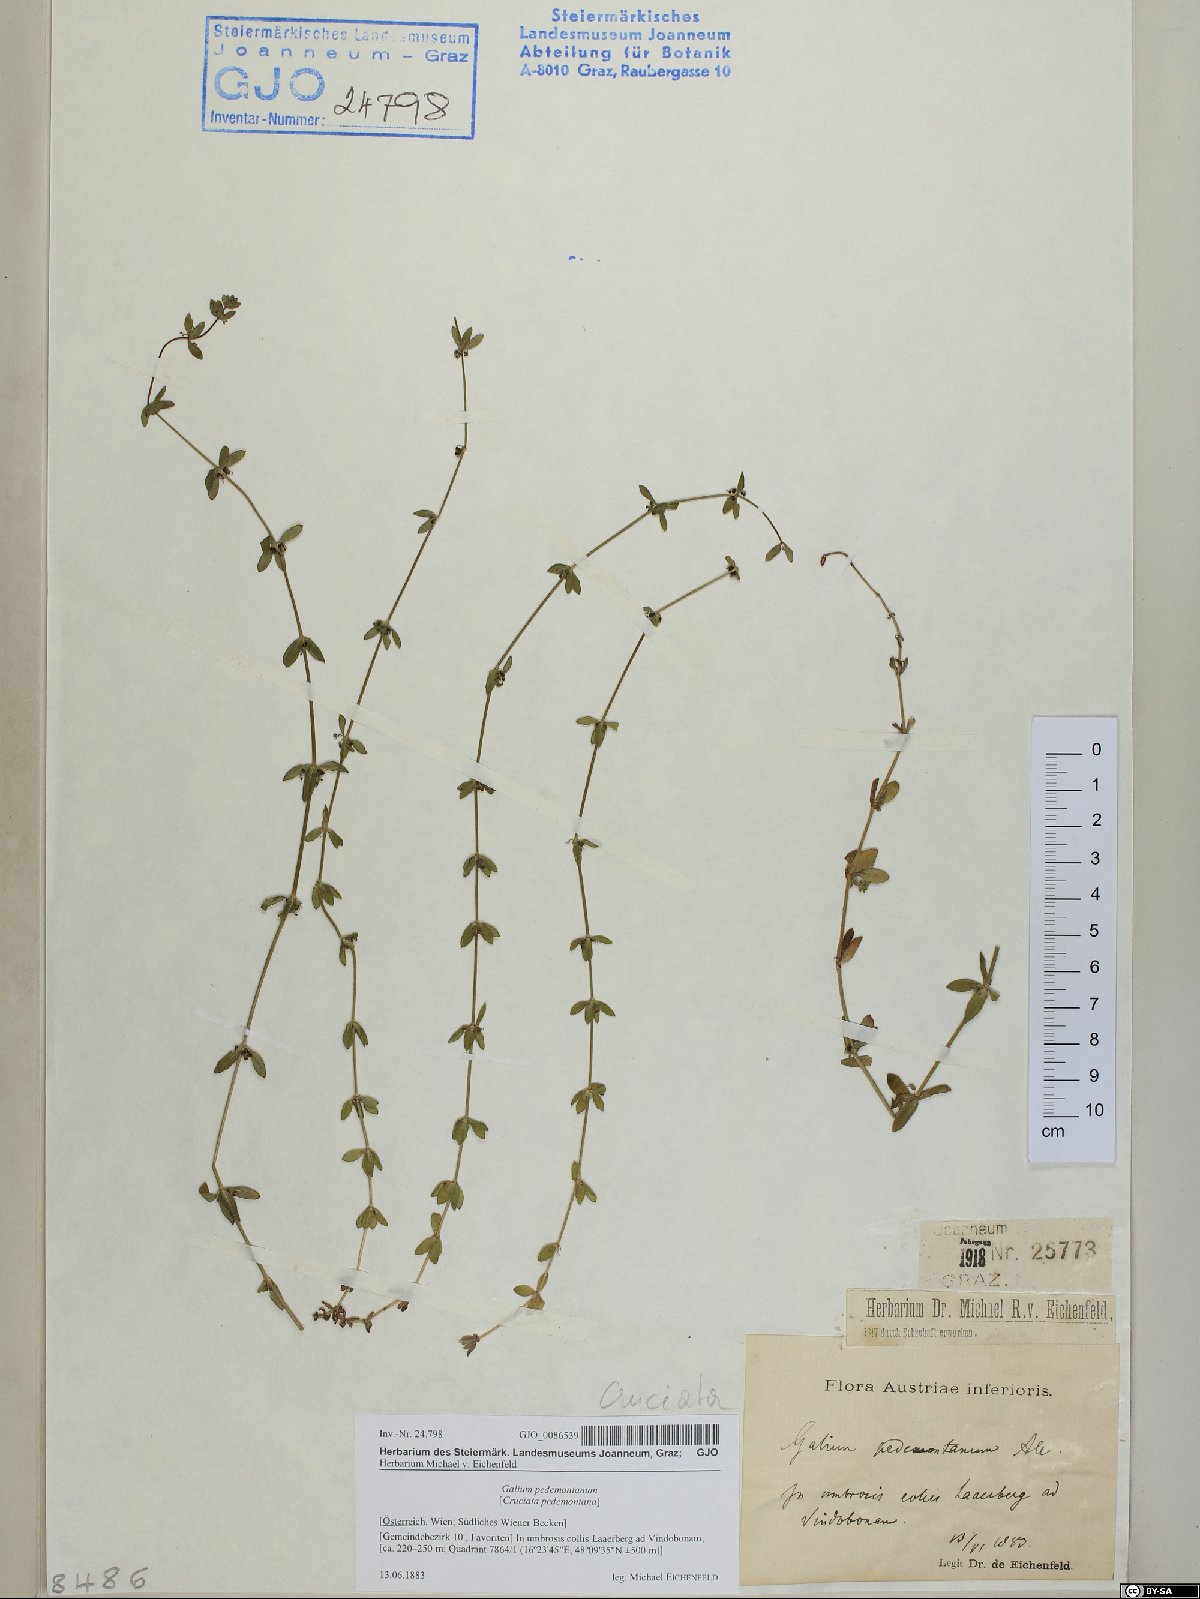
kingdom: Plantae
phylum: Tracheophyta
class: Magnoliopsida
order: Gentianales
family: Rubiaceae
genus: Cruciata
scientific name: Cruciata pedemontana
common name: Piedmont bedstraw
